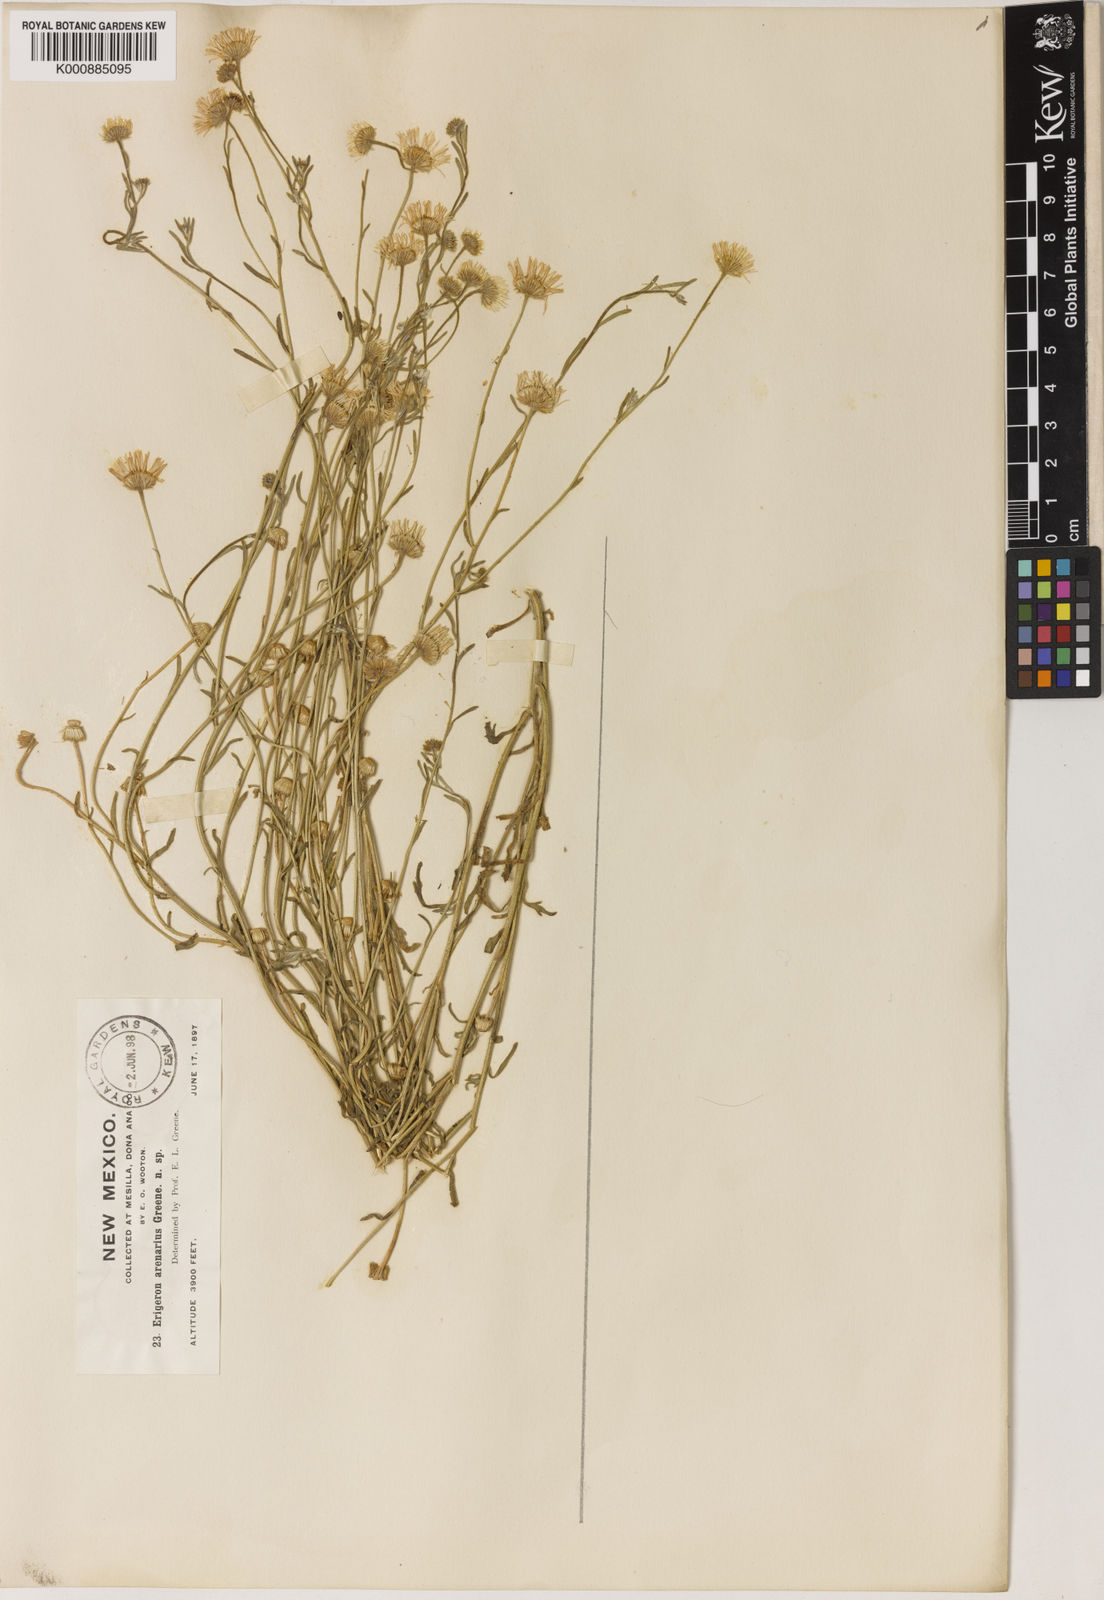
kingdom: Plantae
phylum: Tracheophyta
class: Magnoliopsida
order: Asterales
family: Asteraceae
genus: Erigeron
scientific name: Erigeron bellidiastrum
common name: Sand fleabane
